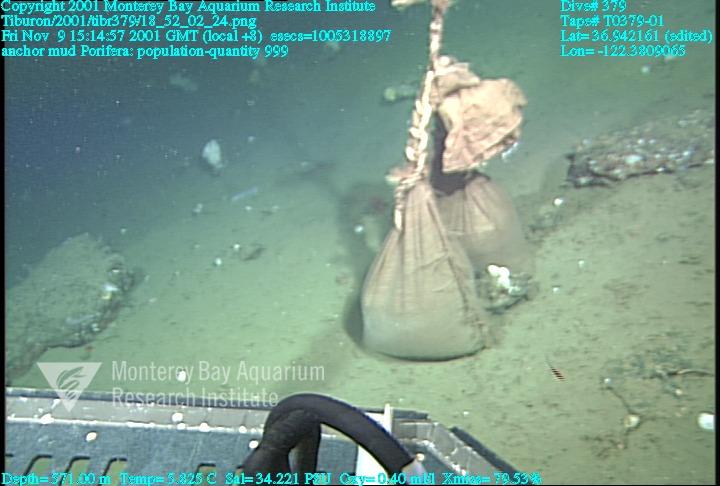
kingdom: Animalia
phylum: Porifera
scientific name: Porifera
